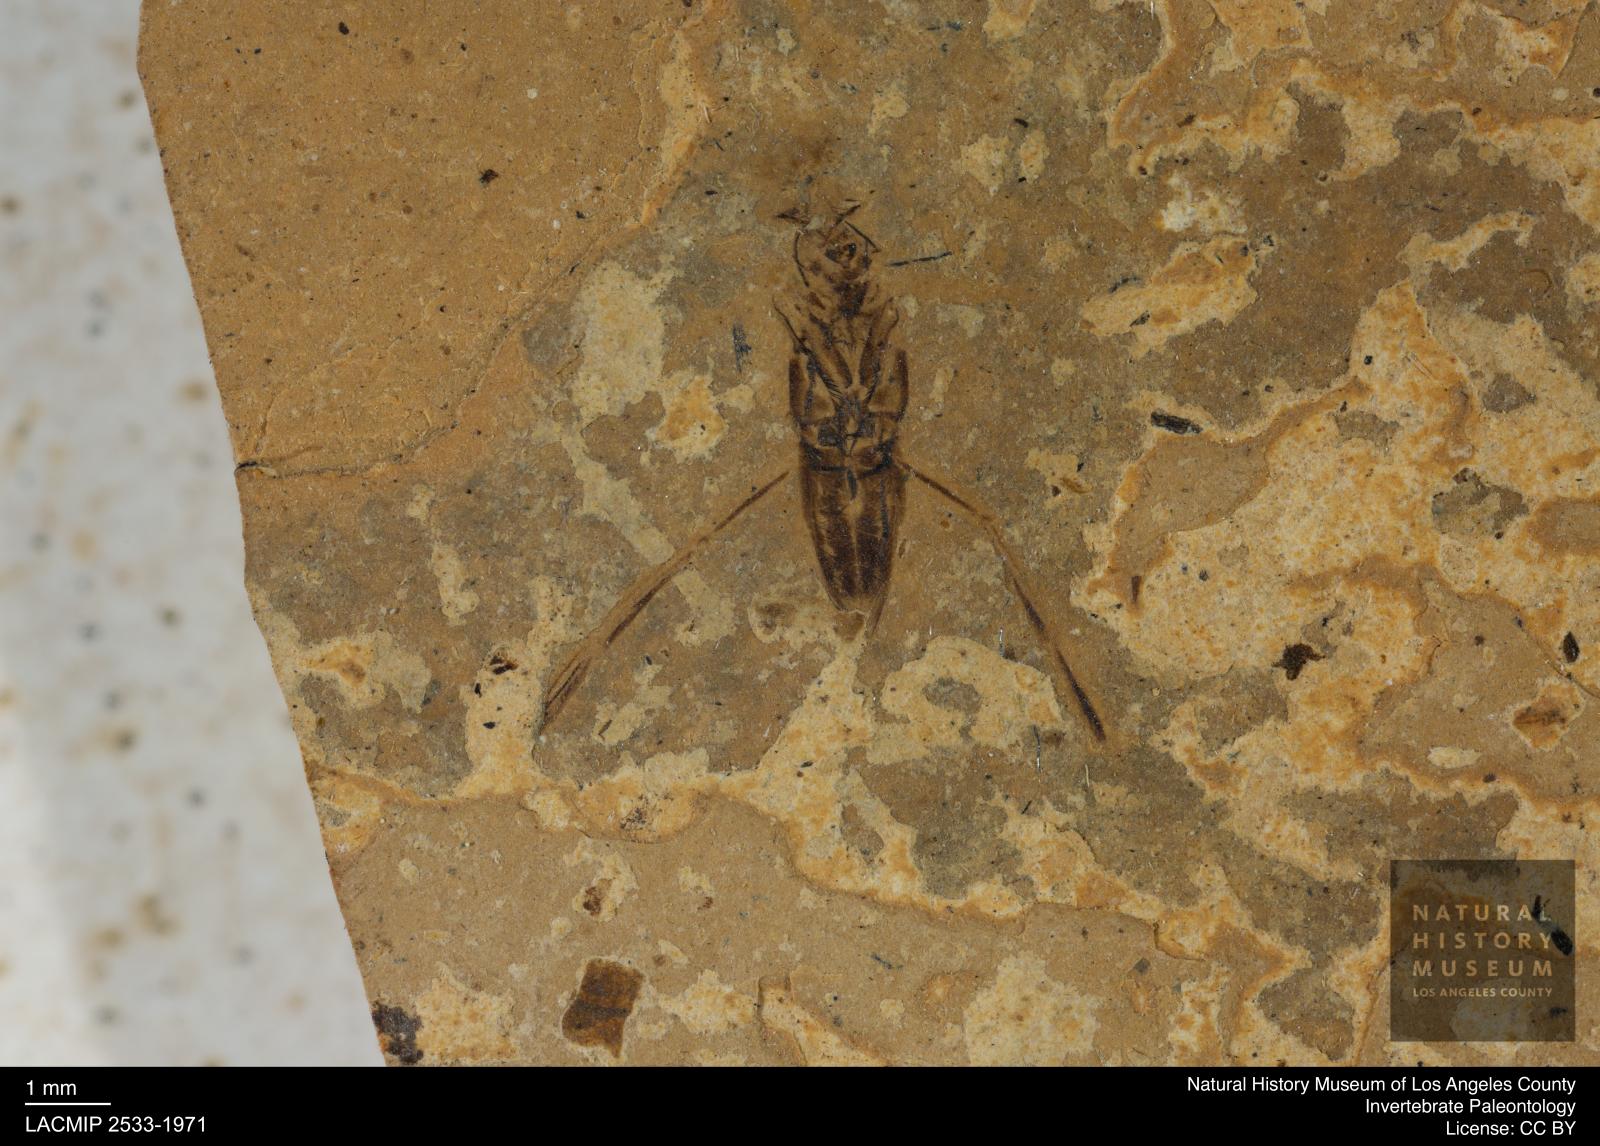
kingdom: Animalia
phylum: Arthropoda
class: Insecta
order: Hemiptera
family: Notonectidae
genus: Anisops
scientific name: Anisops Notonecta deichmuelleri
